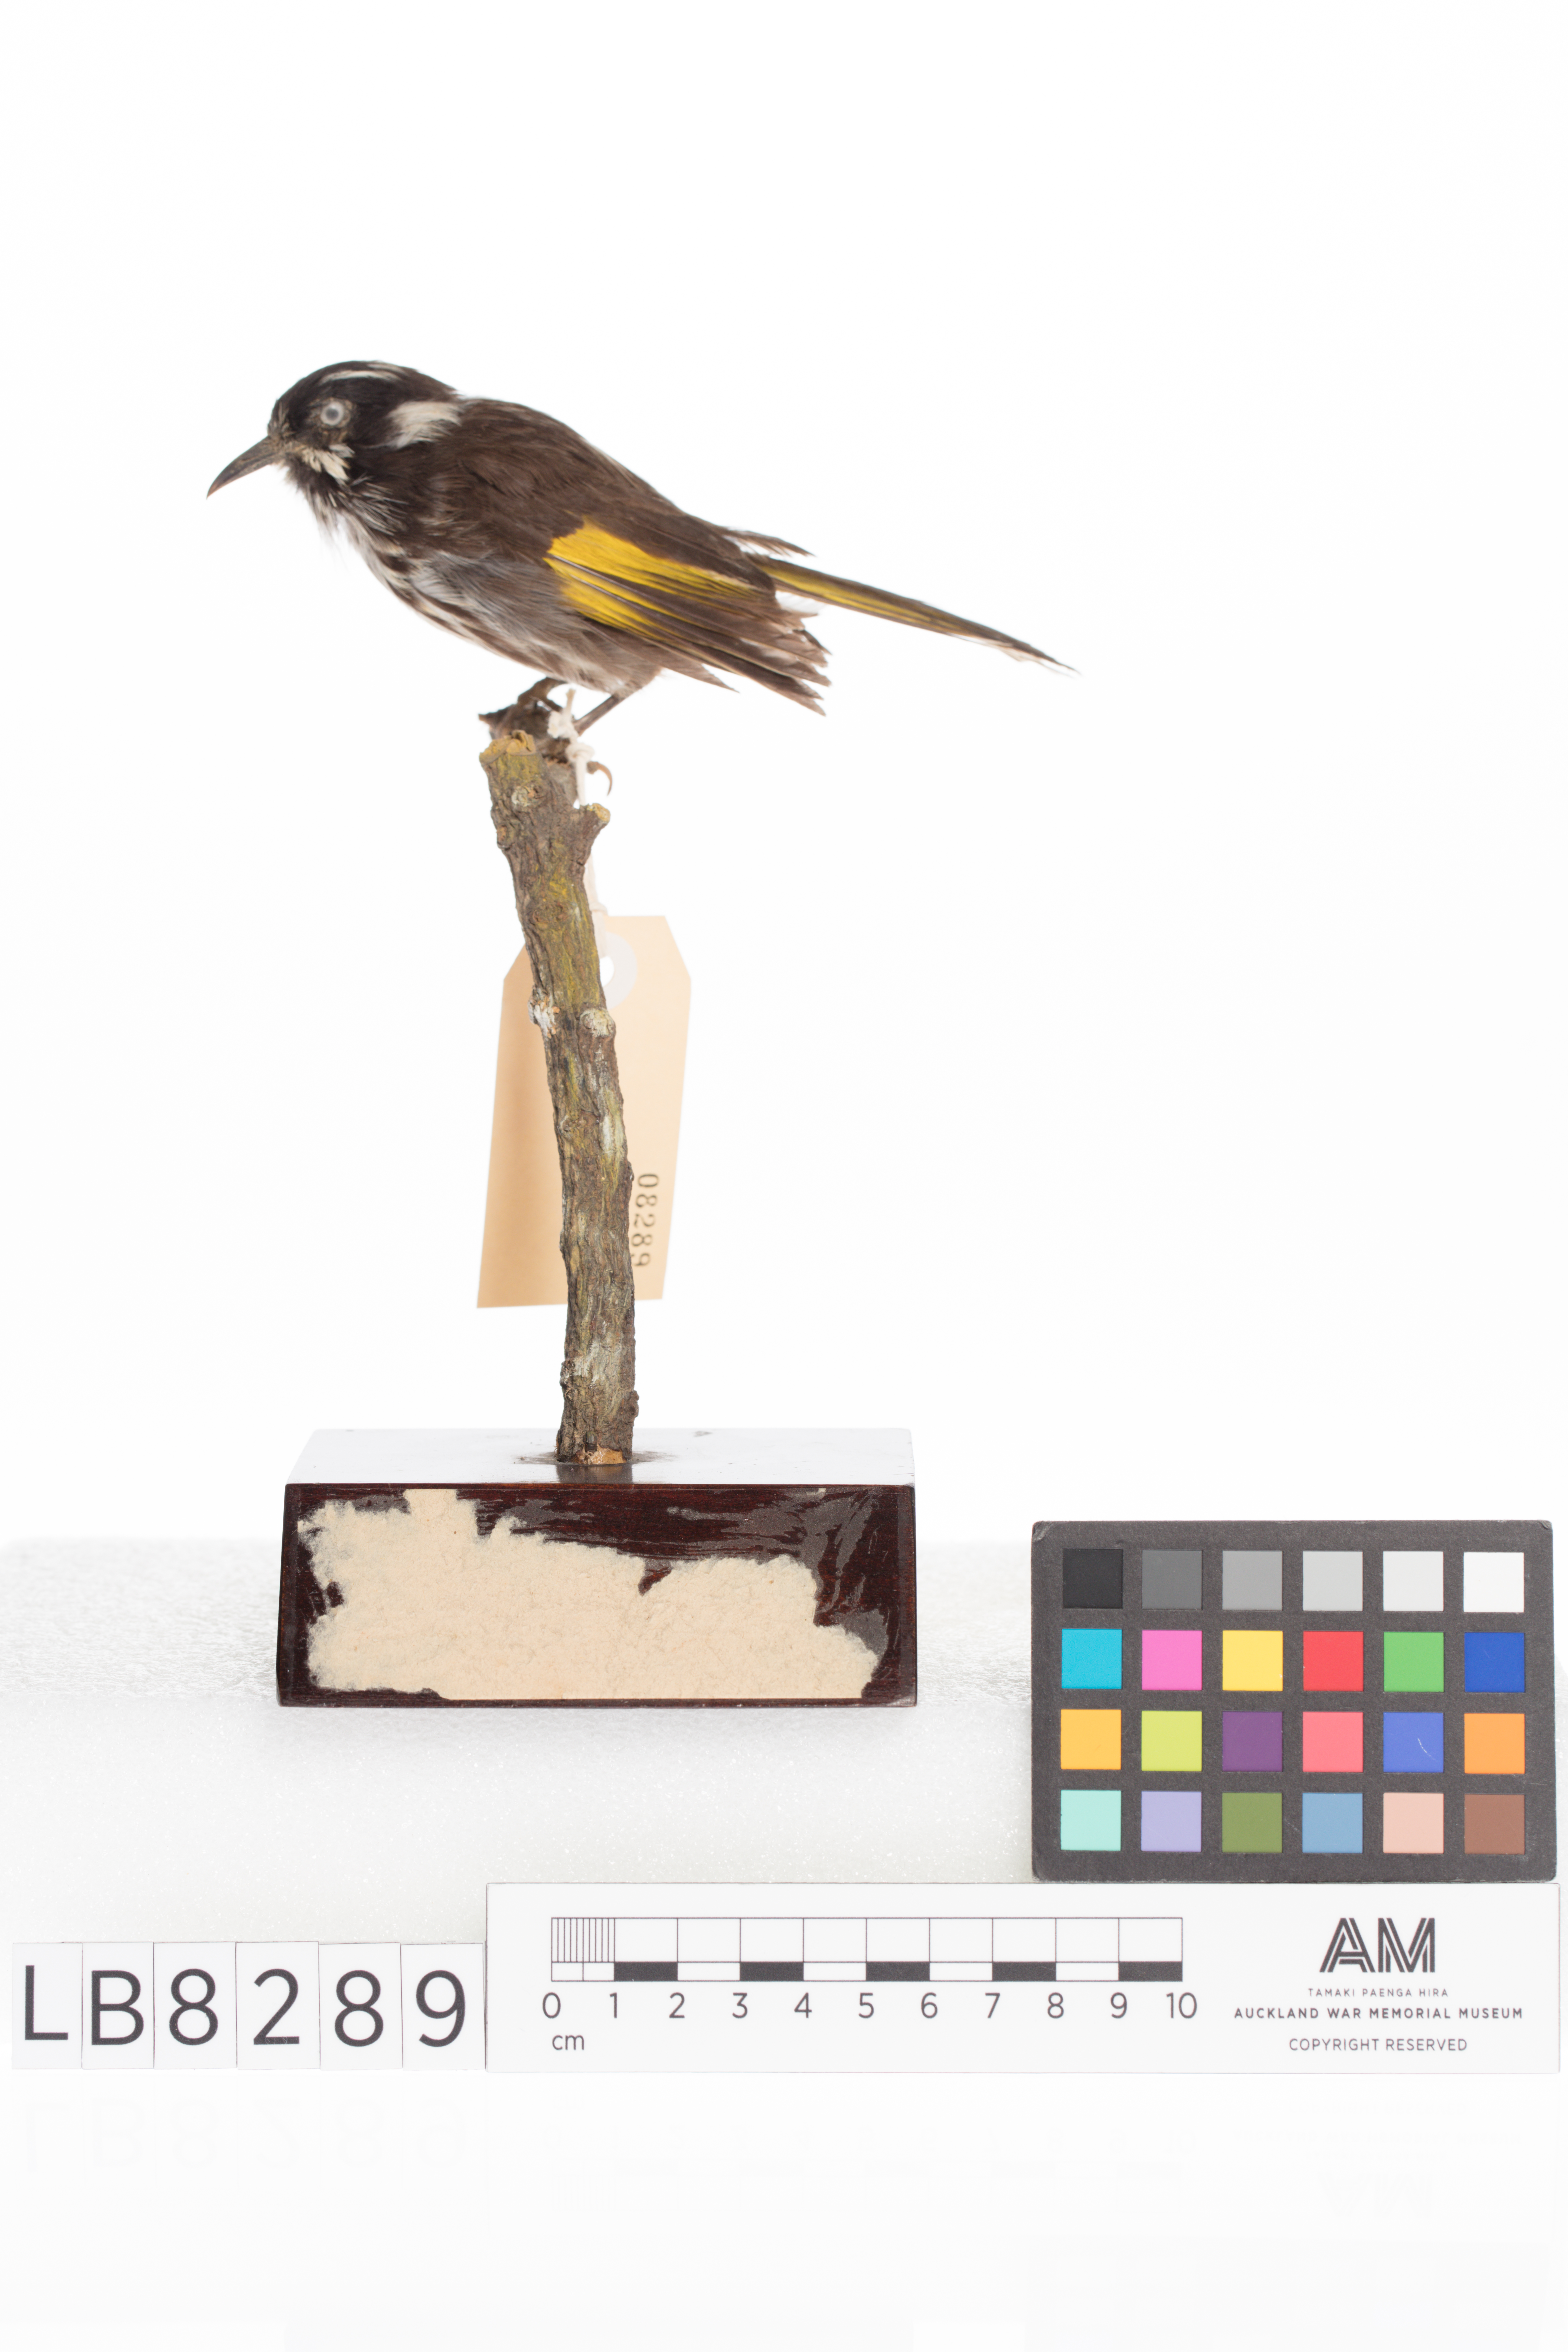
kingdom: Animalia
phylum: Chordata
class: Aves
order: Passeriformes
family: Meliphagidae
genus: Phylidonyris
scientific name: Phylidonyris novaehollandiae
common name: New holland honeyeater
